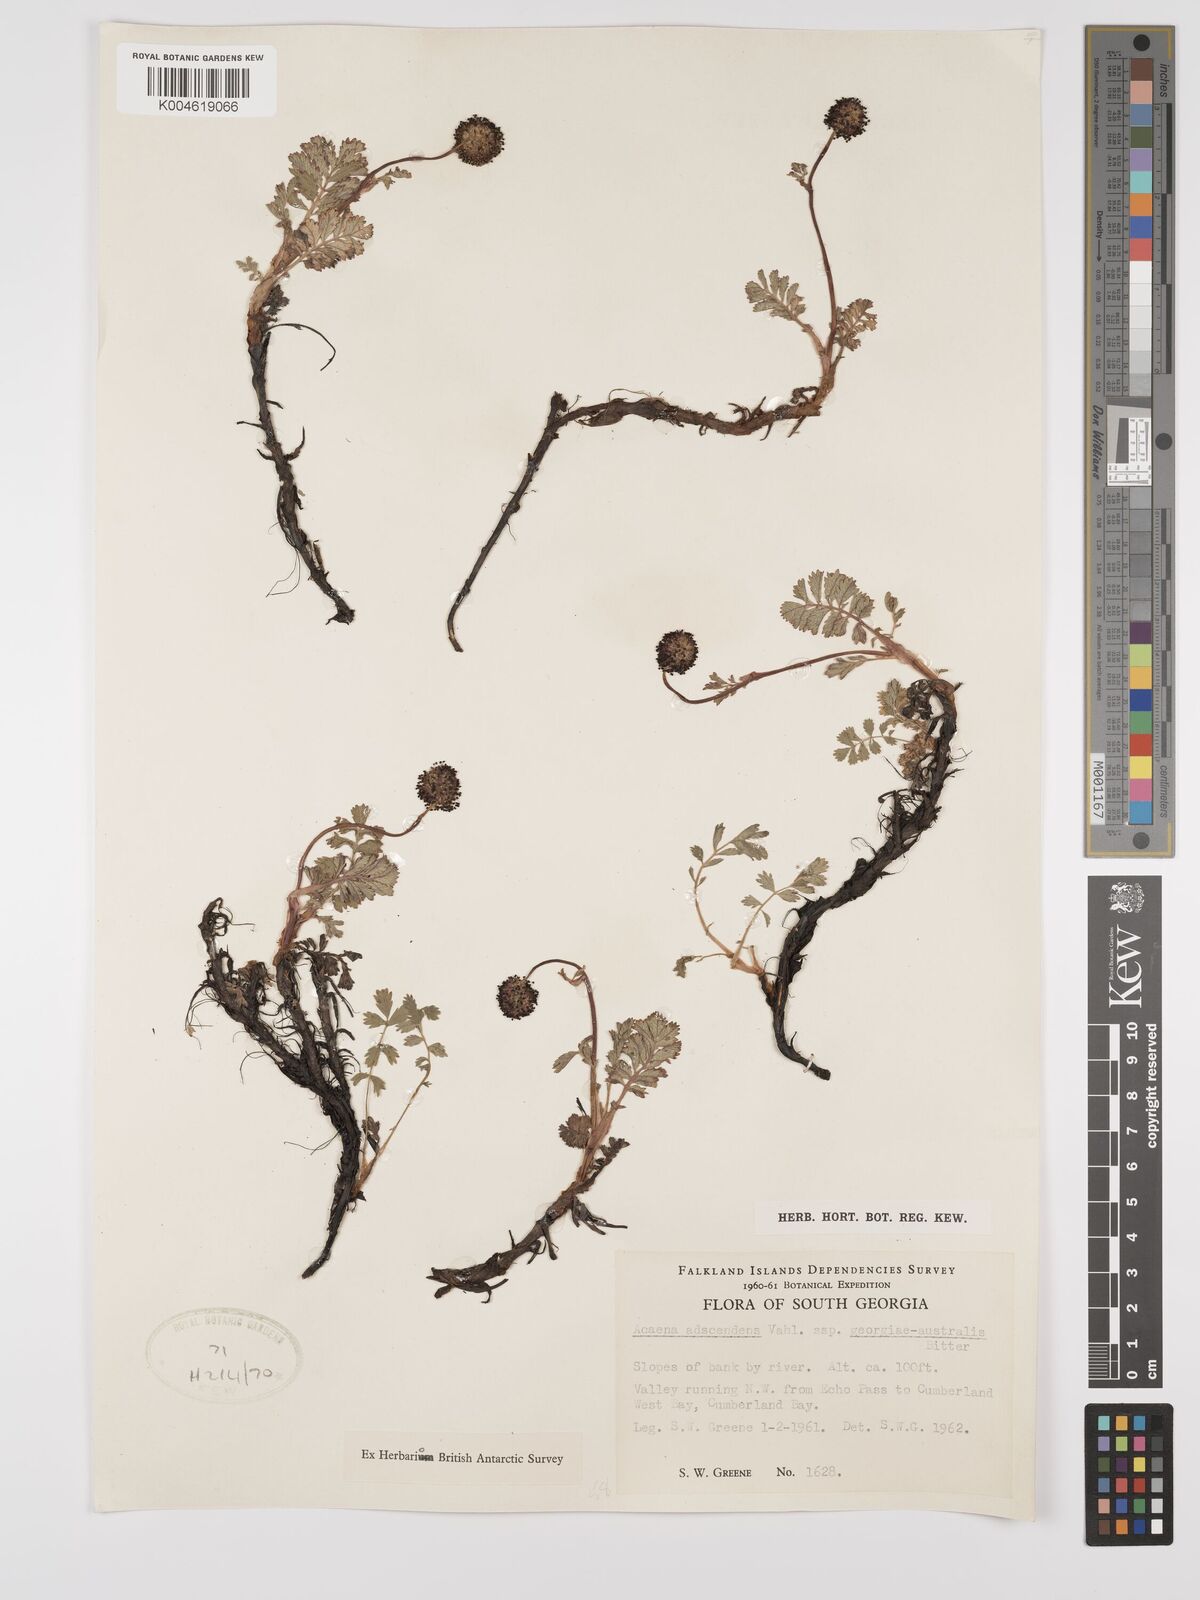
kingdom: Plantae
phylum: Tracheophyta
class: Magnoliopsida
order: Rosales
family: Rosaceae
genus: Acaena
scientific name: Acaena magellanica
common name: New zealand burr
